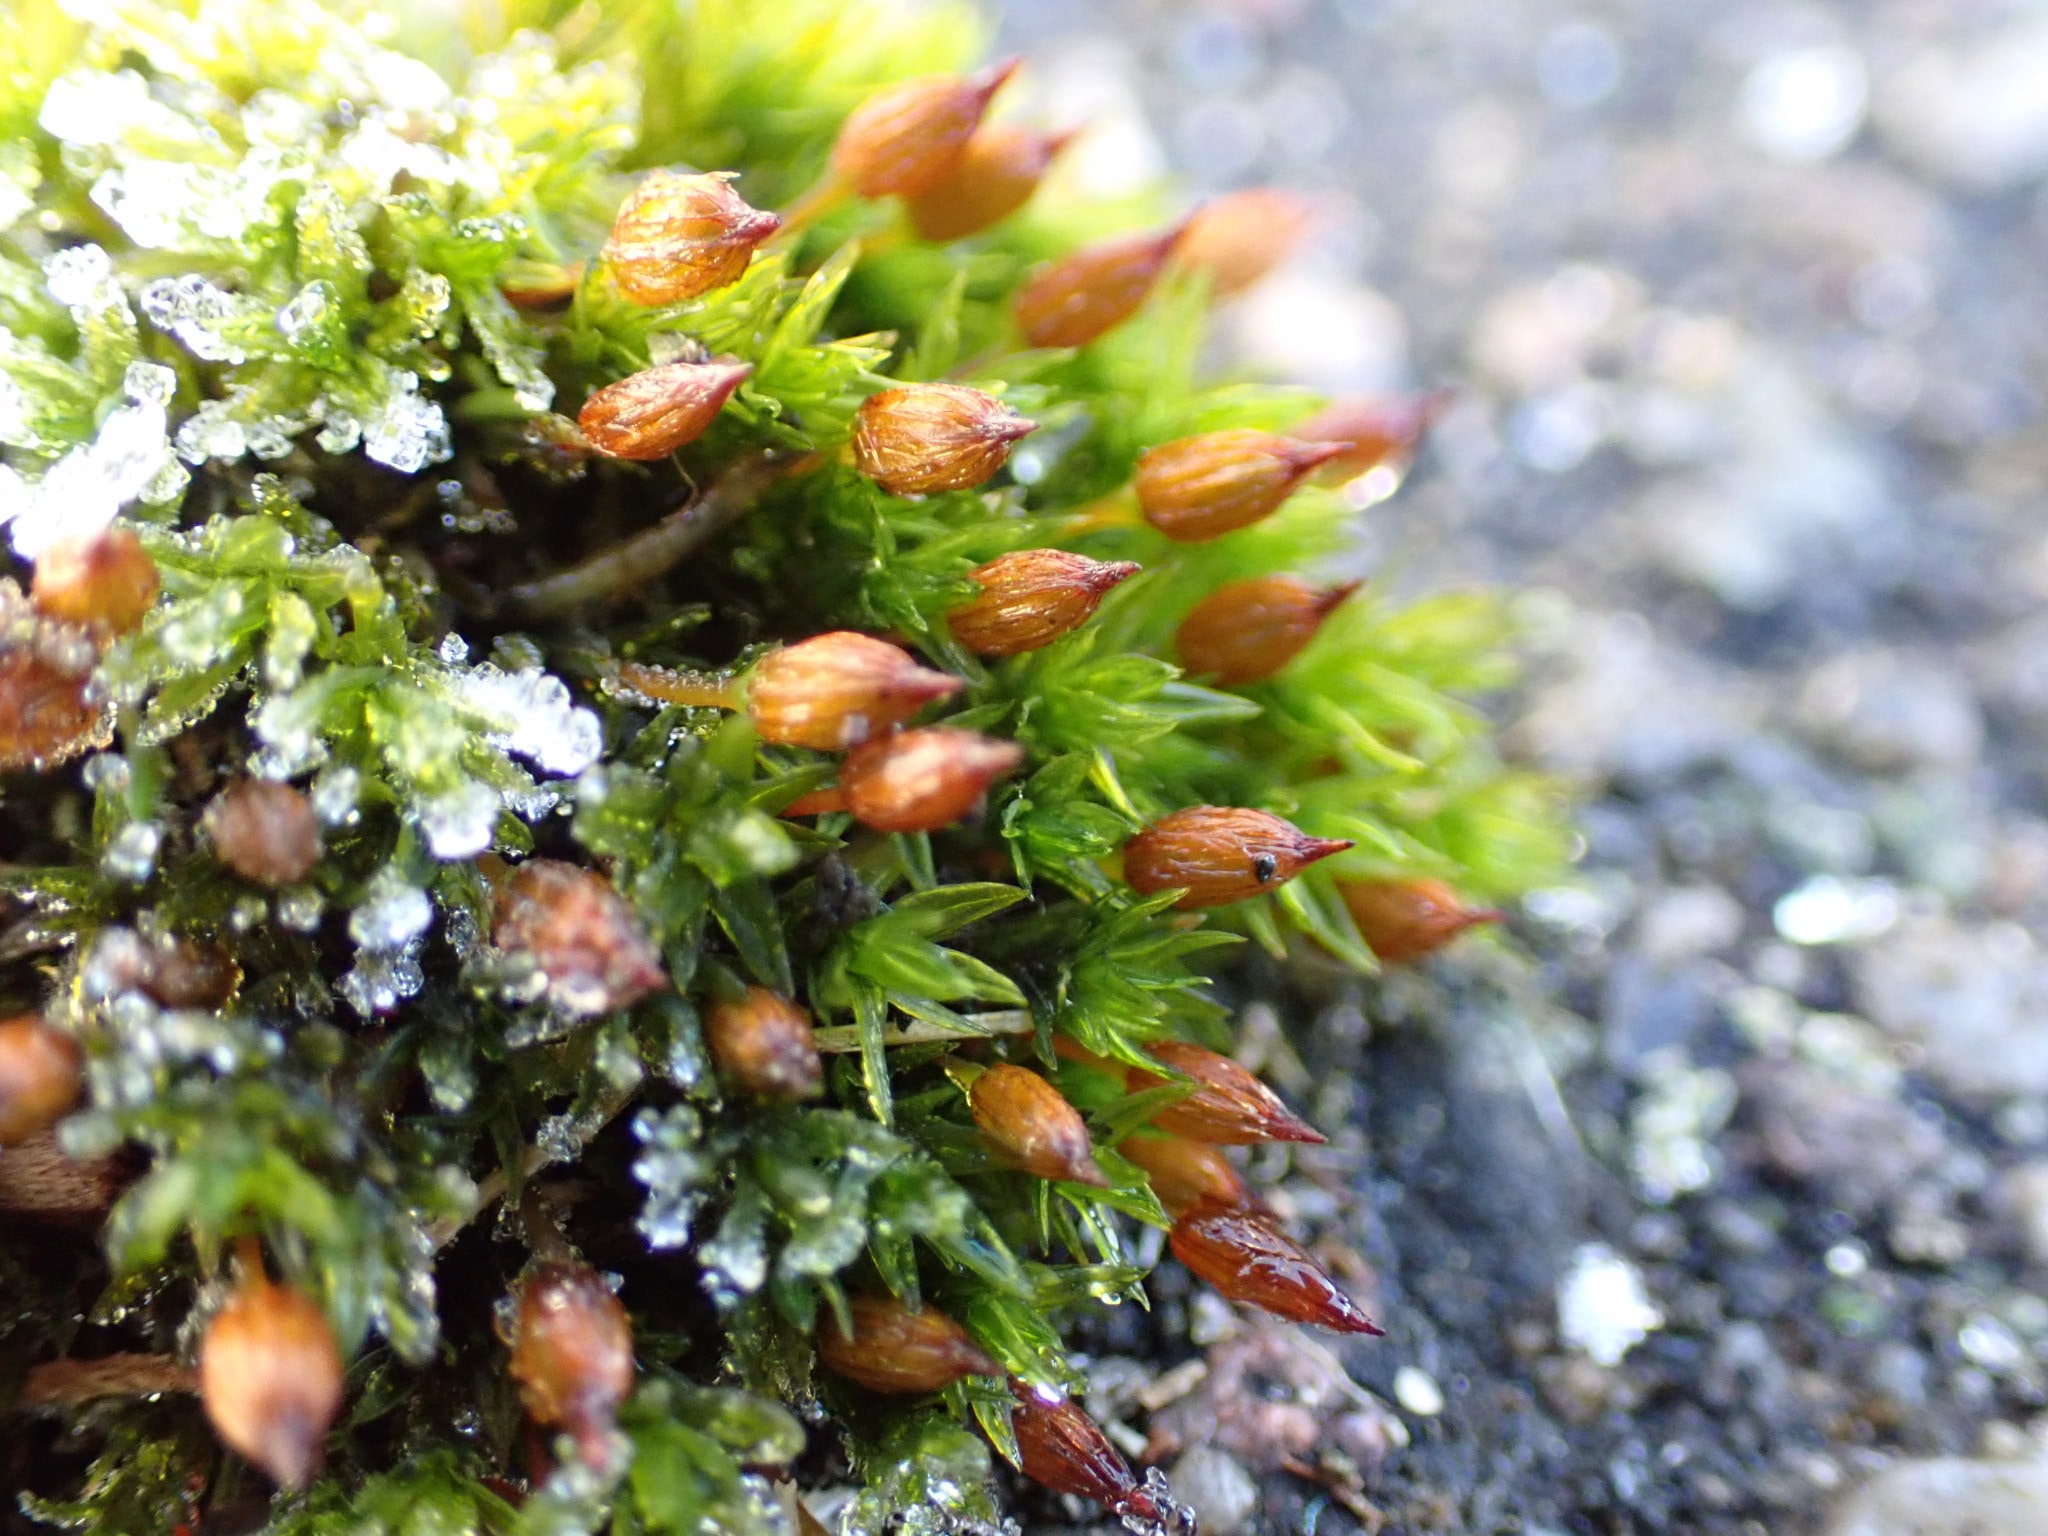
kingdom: Plantae
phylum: Bryophyta
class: Bryopsida
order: Orthotrichales
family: Orthotrichaceae
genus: Orthotrichum
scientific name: Orthotrichum anomalum
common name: Mørk furehætte
